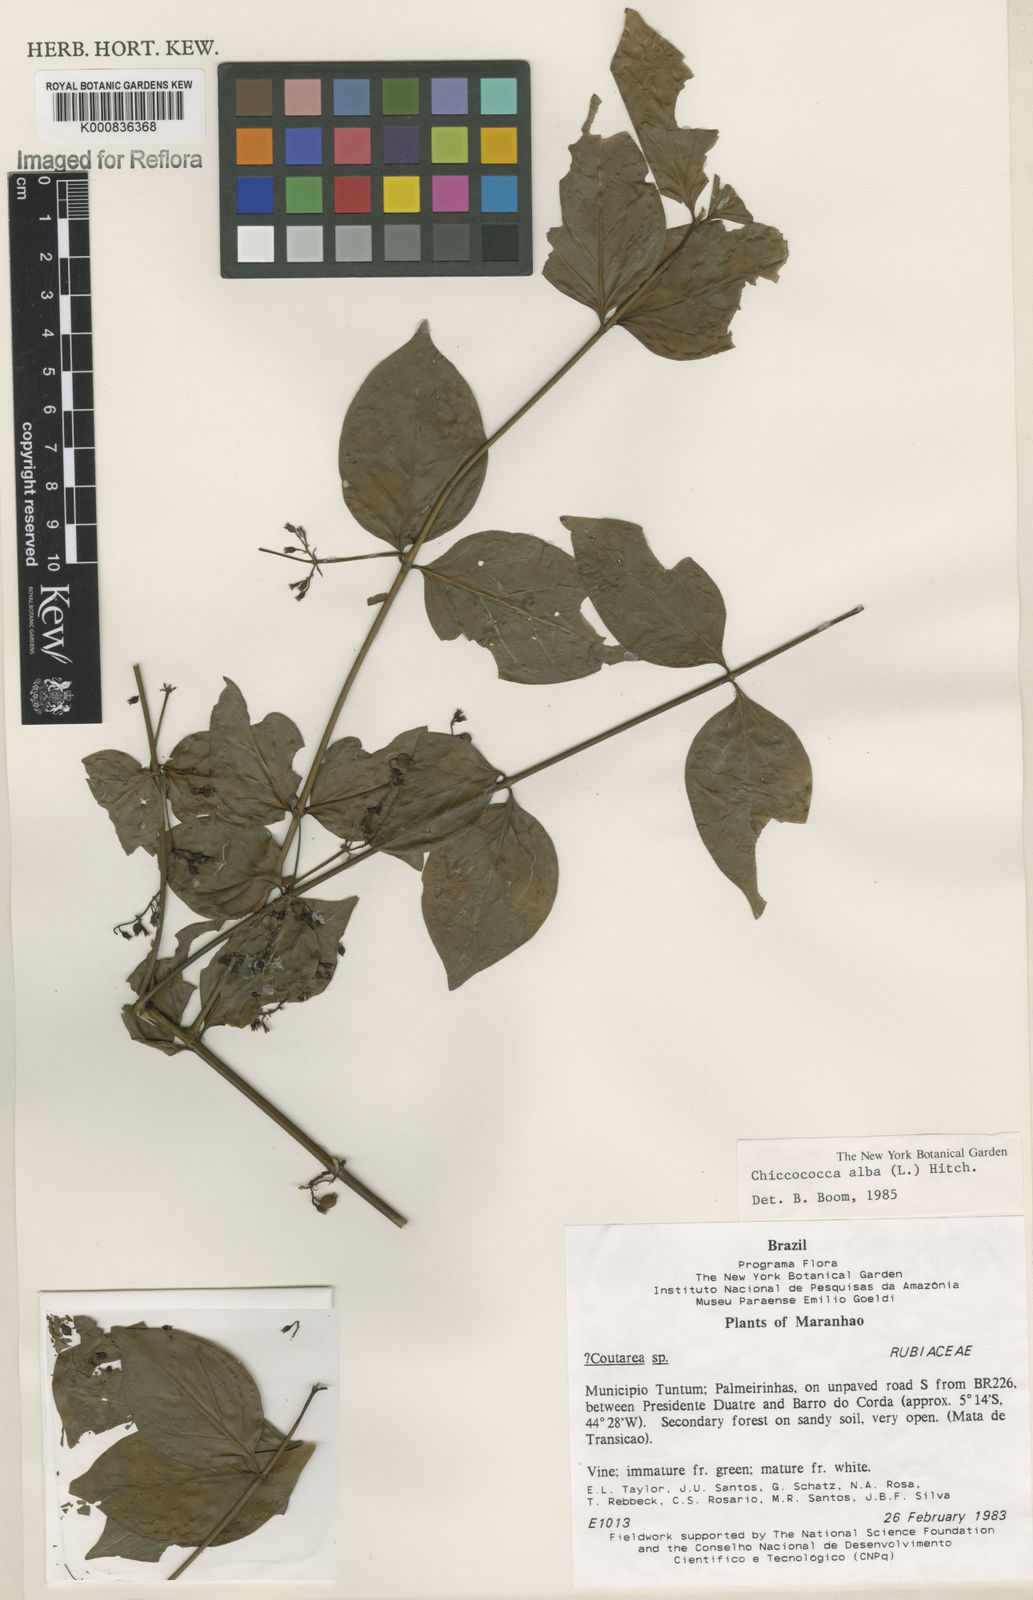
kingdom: Plantae
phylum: Tracheophyta
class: Magnoliopsida
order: Gentianales
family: Rubiaceae
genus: Chiococca
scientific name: Chiococca alba
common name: Snowberry
